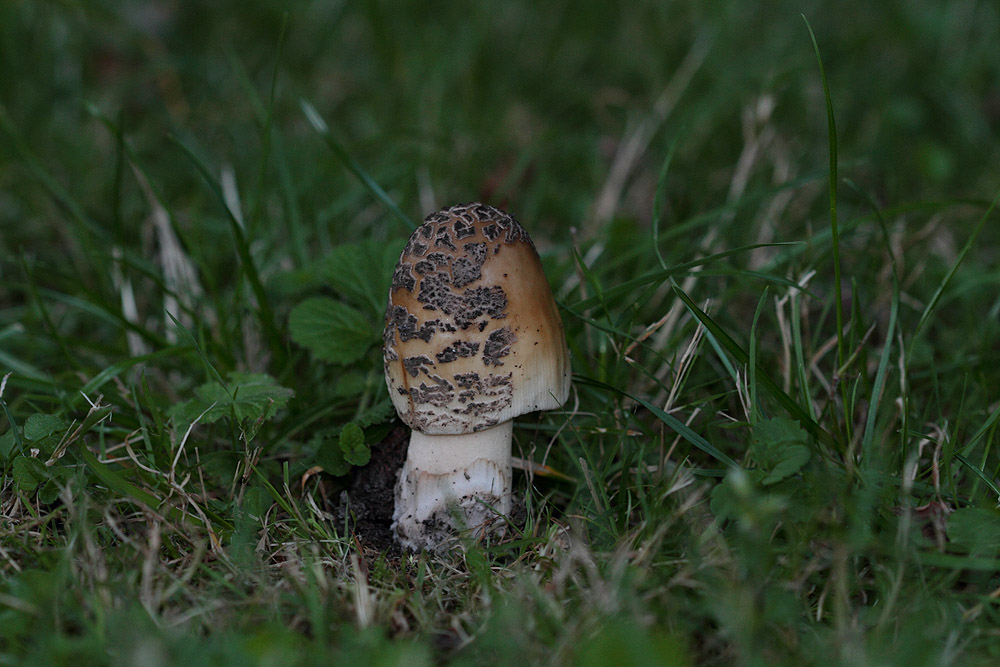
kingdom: Fungi
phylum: Basidiomycota
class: Agaricomycetes
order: Agaricales
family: Amanitaceae
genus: Amanita
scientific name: Amanita ceciliae
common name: stor kam-fluesvamp
